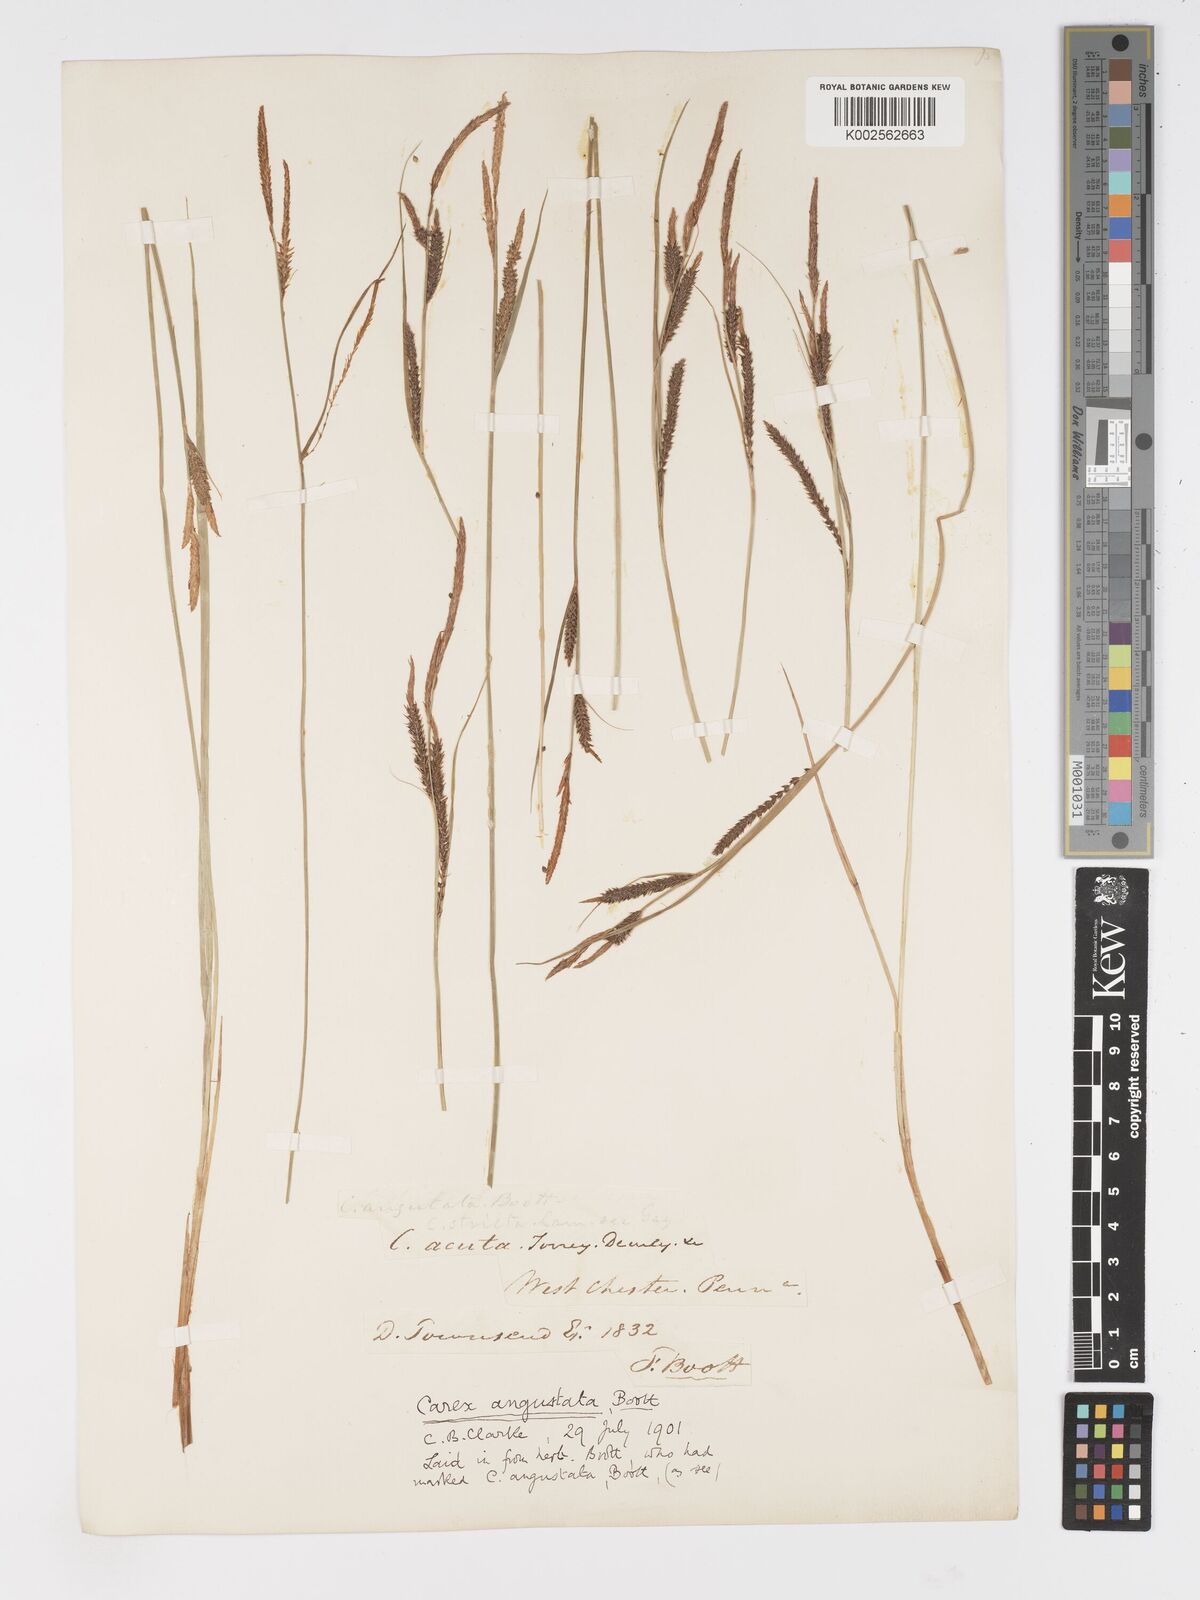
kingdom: Plantae
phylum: Tracheophyta
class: Liliopsida
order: Poales
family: Cyperaceae
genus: Carex
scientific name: Carex stricta
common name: Hummock sedge
